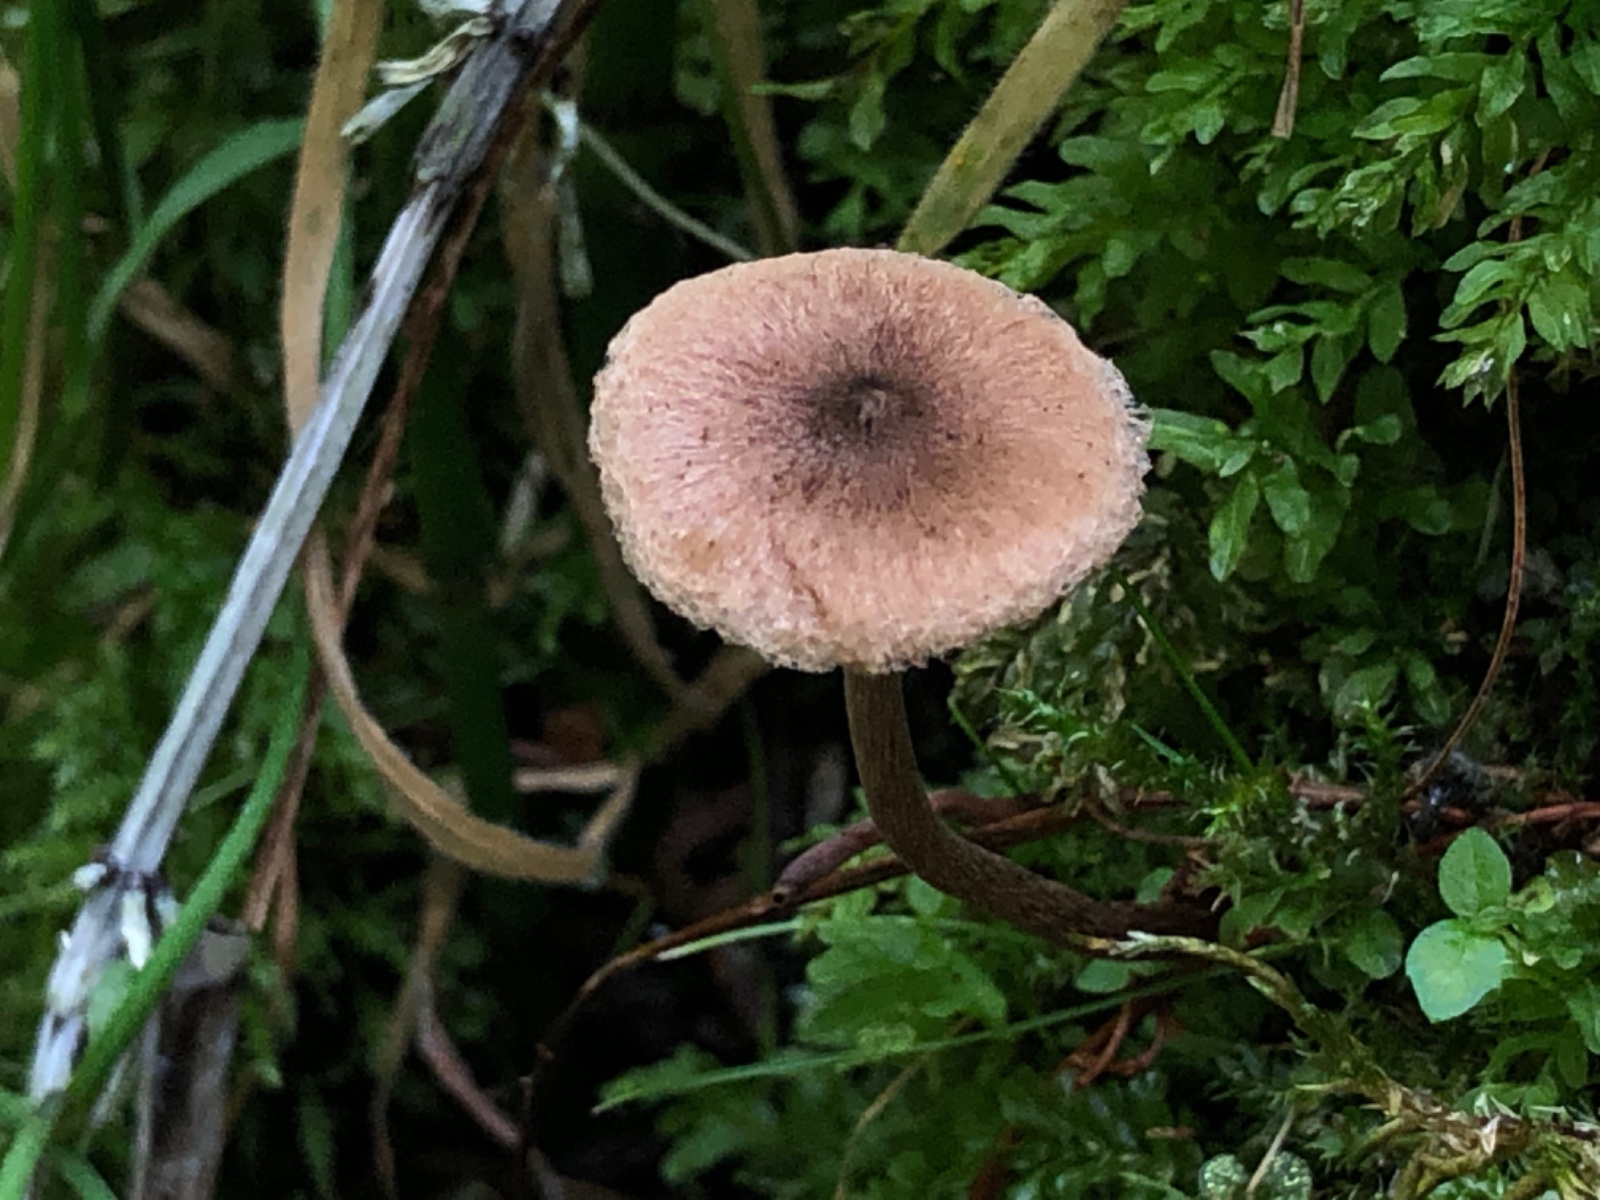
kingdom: Fungi
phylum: Basidiomycota
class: Agaricomycetes
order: Agaricales
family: Inocybaceae
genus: Inocybe
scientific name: Inocybe helobia
